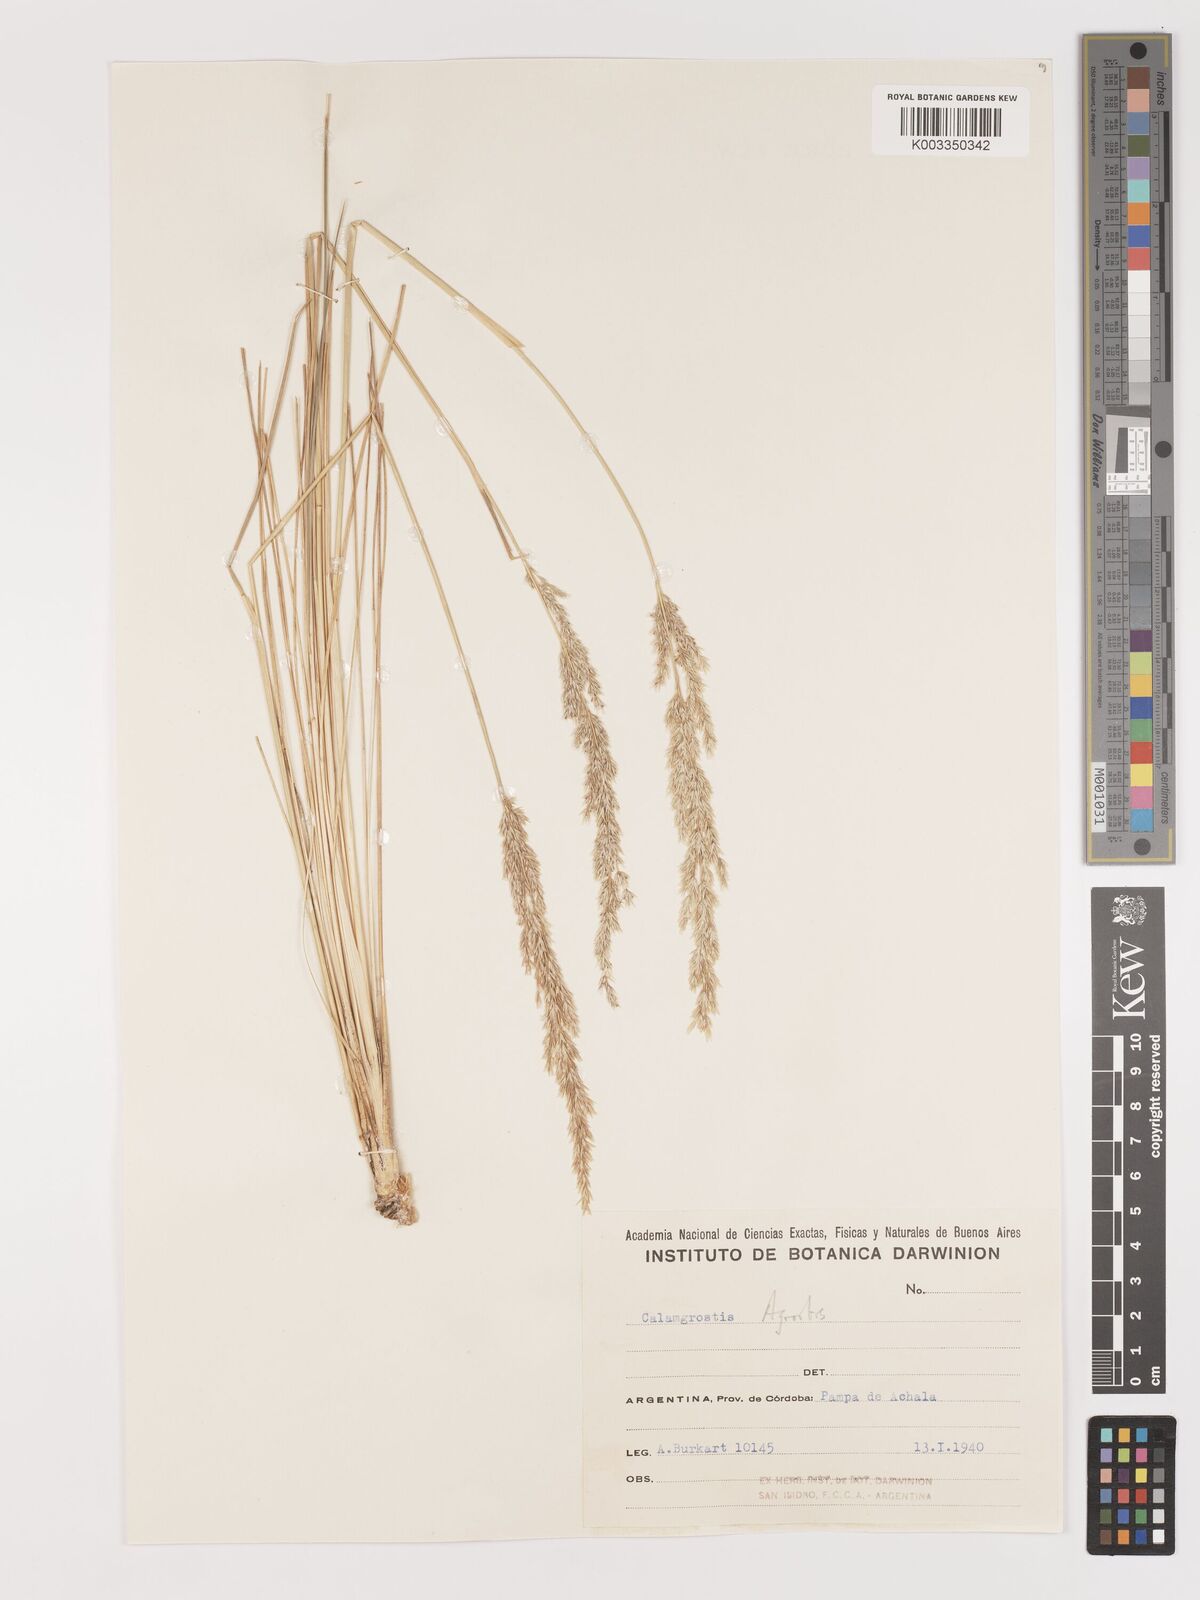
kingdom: Plantae
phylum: Tracheophyta
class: Liliopsida
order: Poales
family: Poaceae
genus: Agrostis
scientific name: Agrostis
